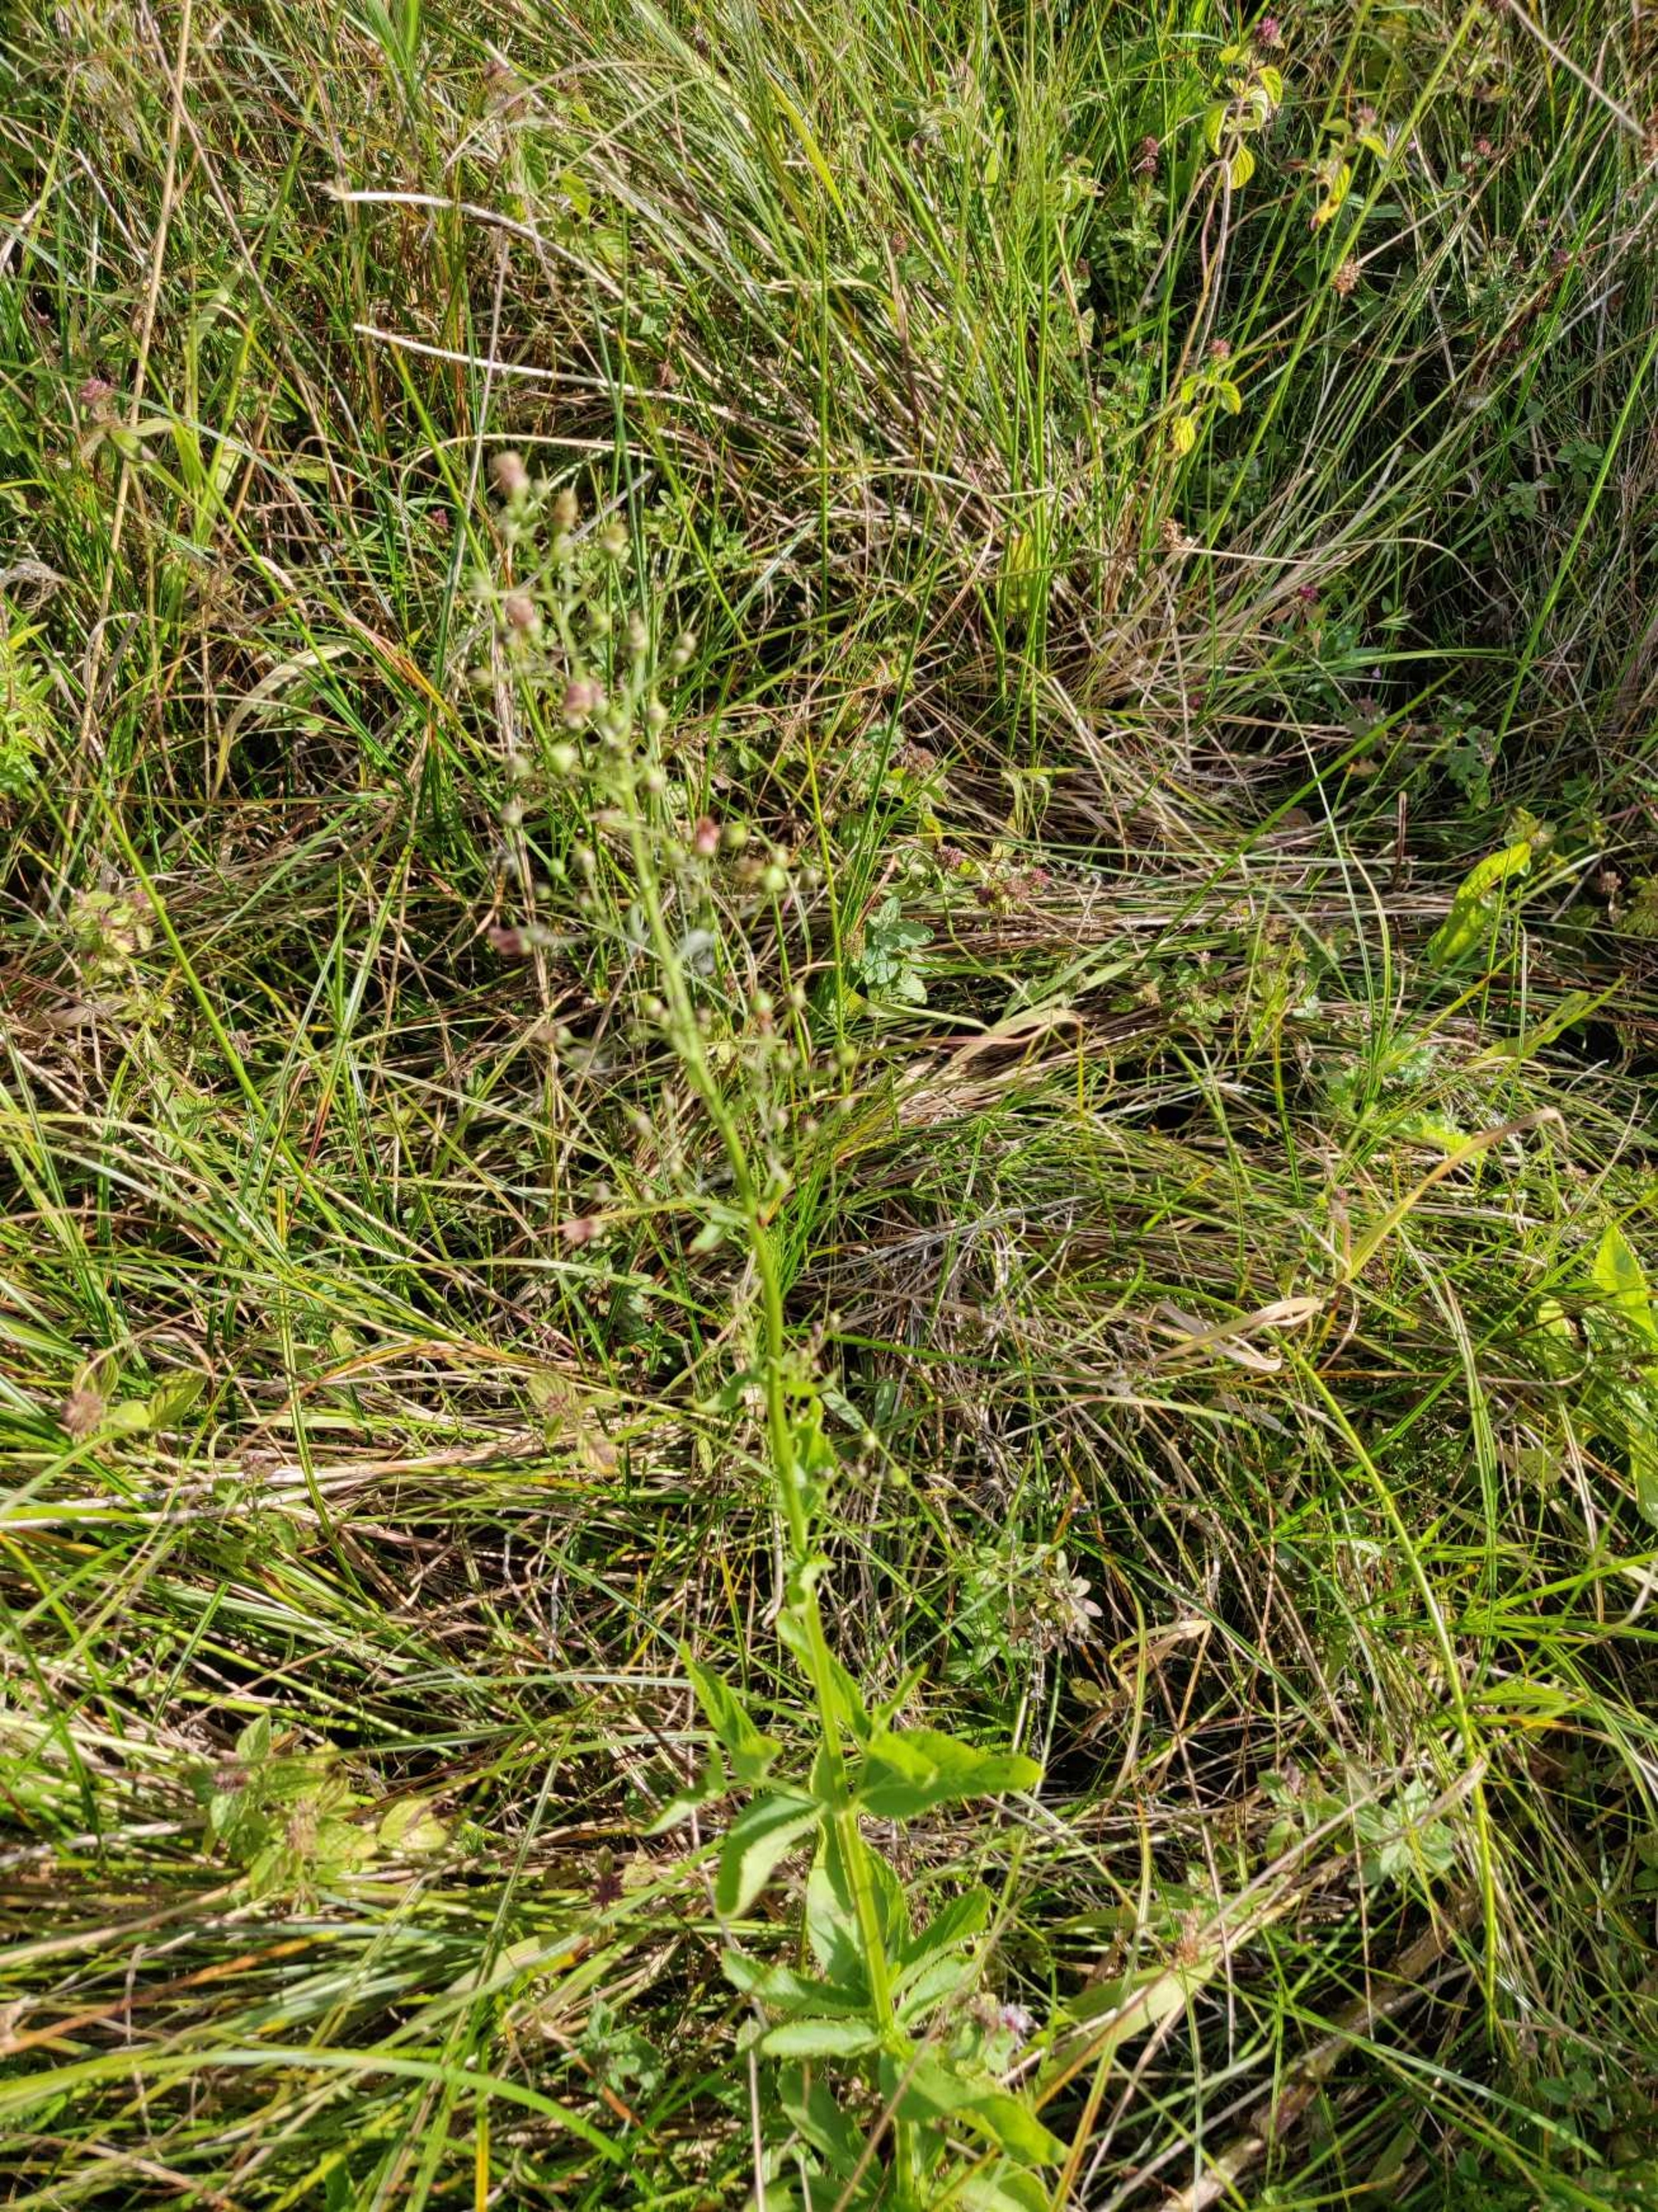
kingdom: Plantae
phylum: Tracheophyta
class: Magnoliopsida
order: Lamiales
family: Scrophulariaceae
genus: Scrophularia
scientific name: Scrophularia umbrosa
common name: Vand-brunrod
